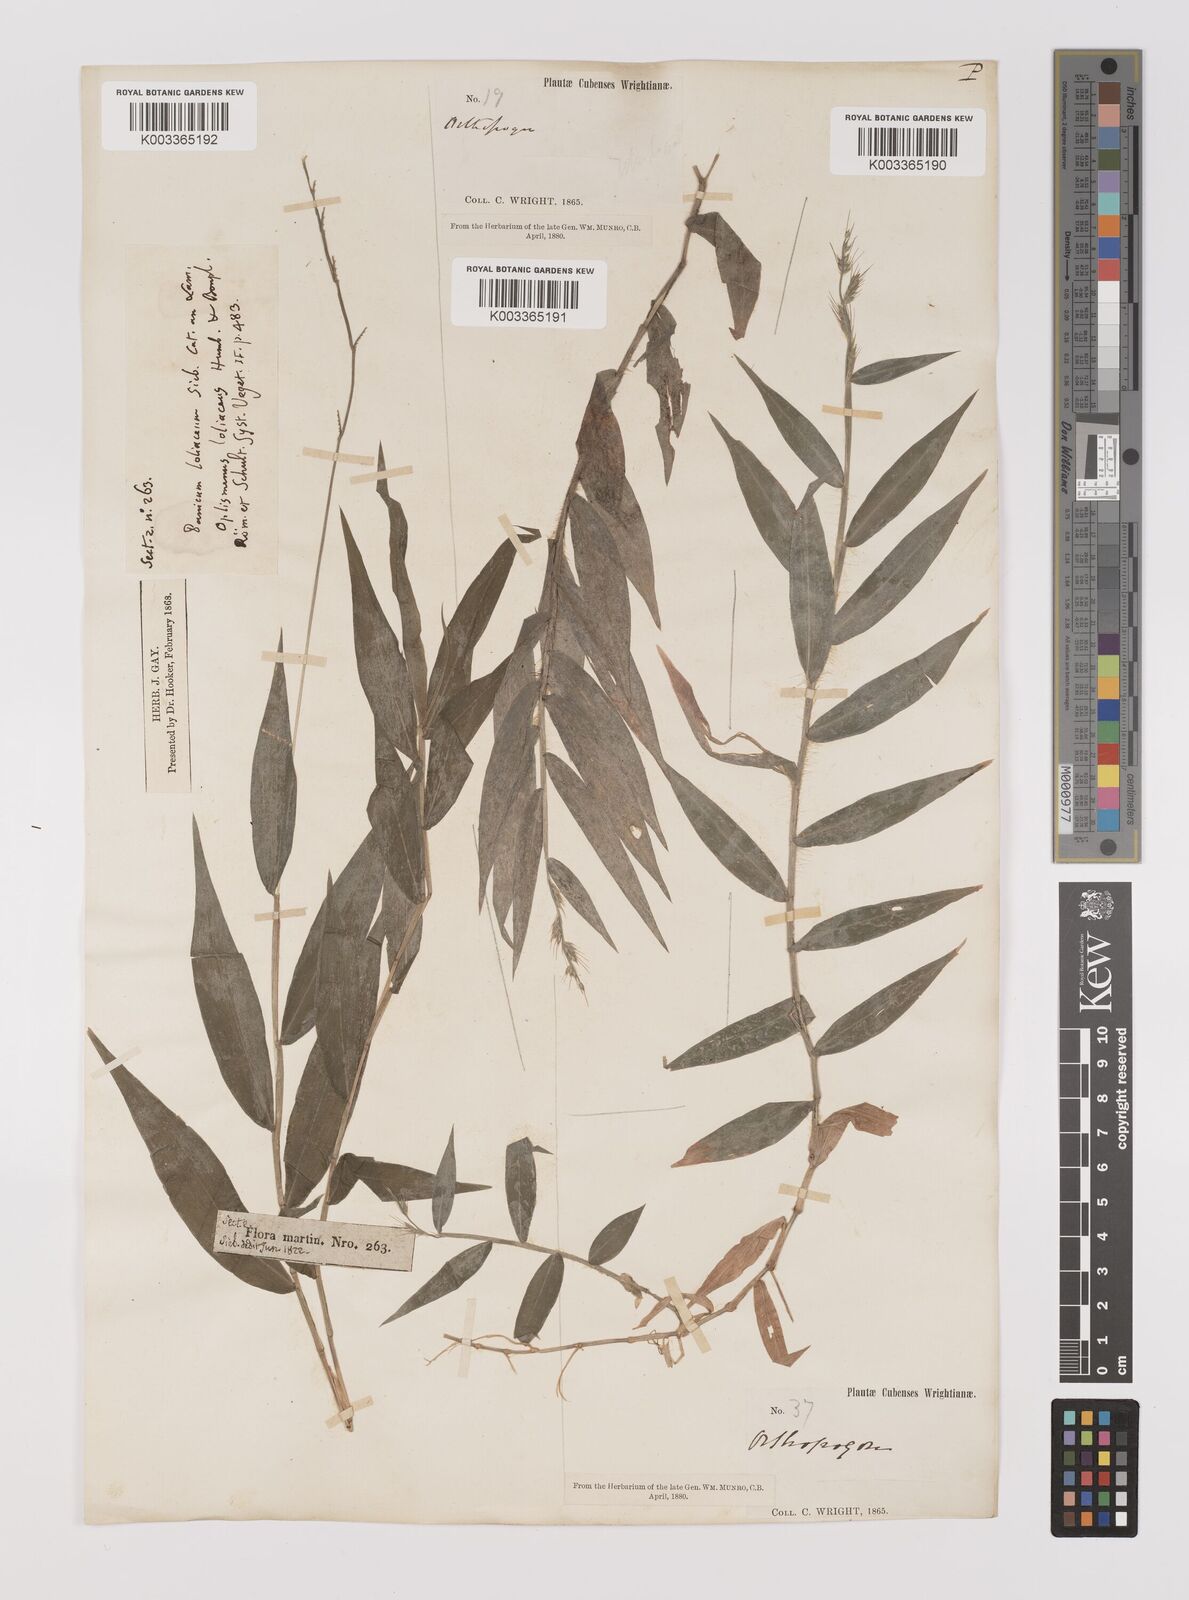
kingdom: Plantae
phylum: Tracheophyta
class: Liliopsida
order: Poales
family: Poaceae
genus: Oplismenus
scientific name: Oplismenus hirtellus
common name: Basketgrass
